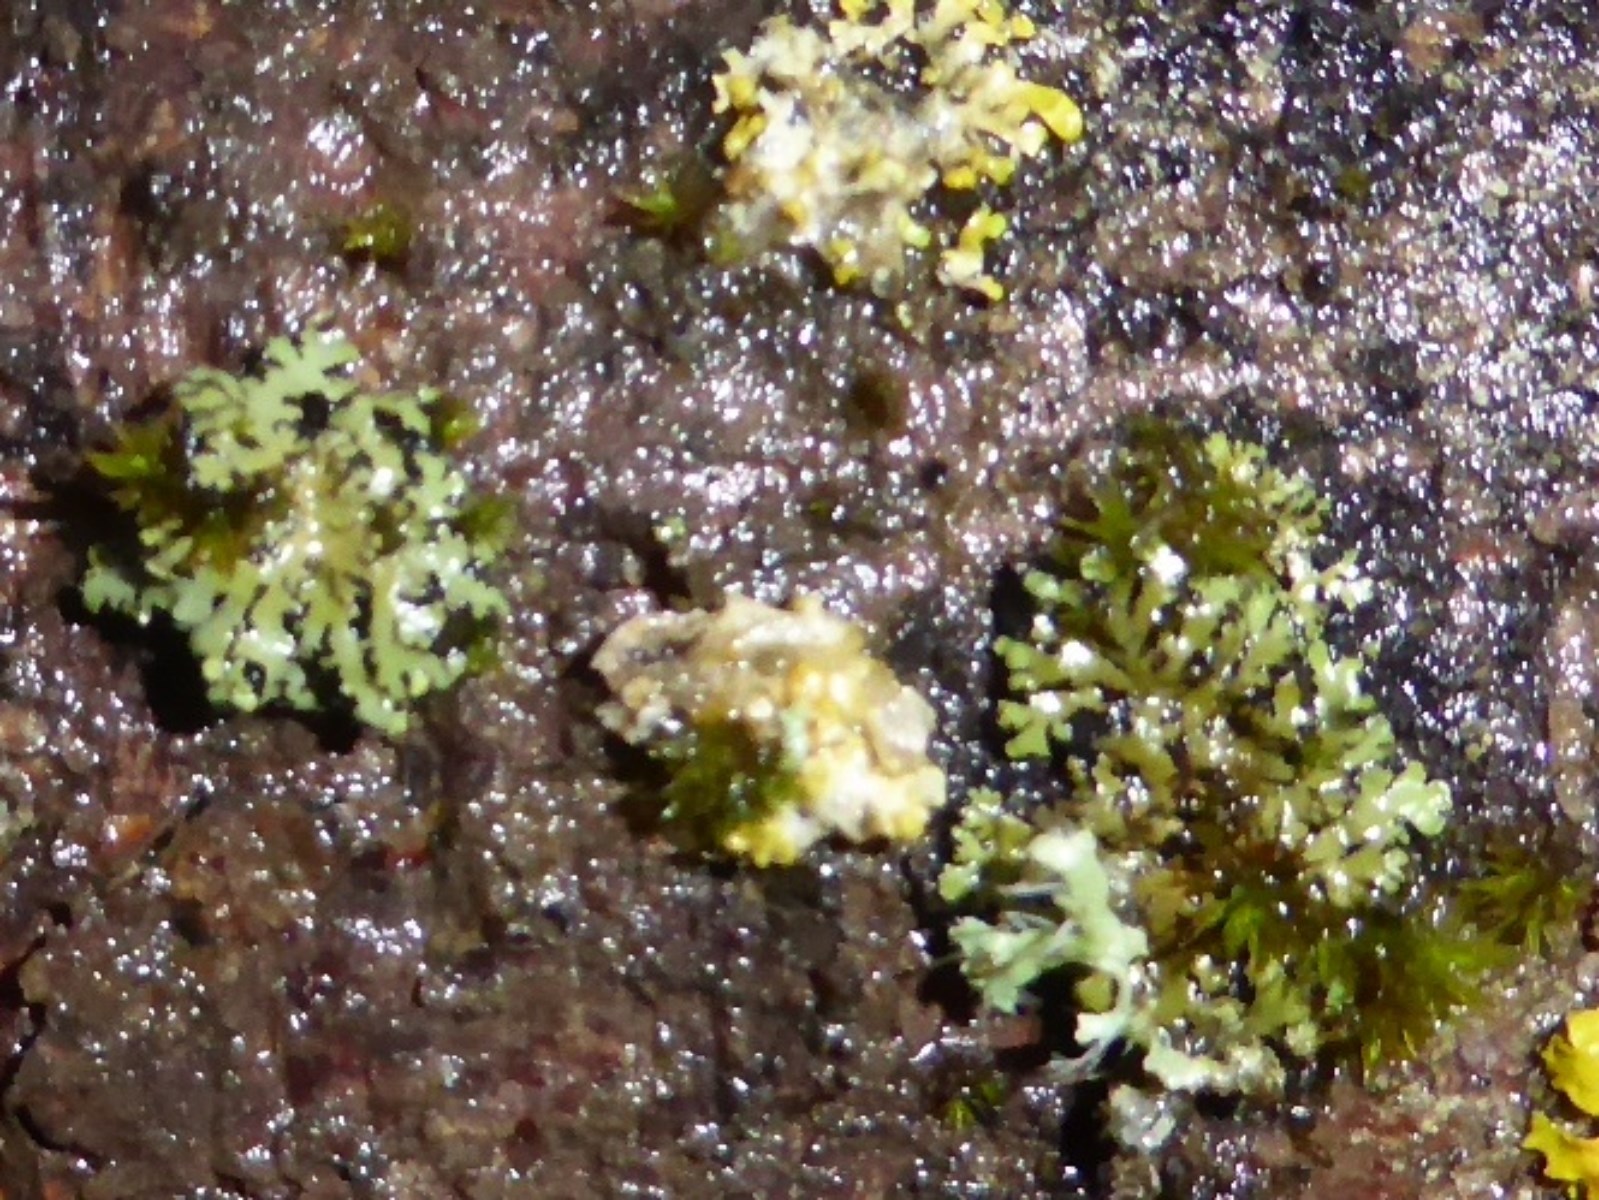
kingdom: Fungi
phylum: Ascomycota
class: Lecanoromycetes
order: Caliciales
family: Physciaceae
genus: Phaeophyscia
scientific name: Phaeophyscia orbicularis
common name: grågrøn rosetlav
